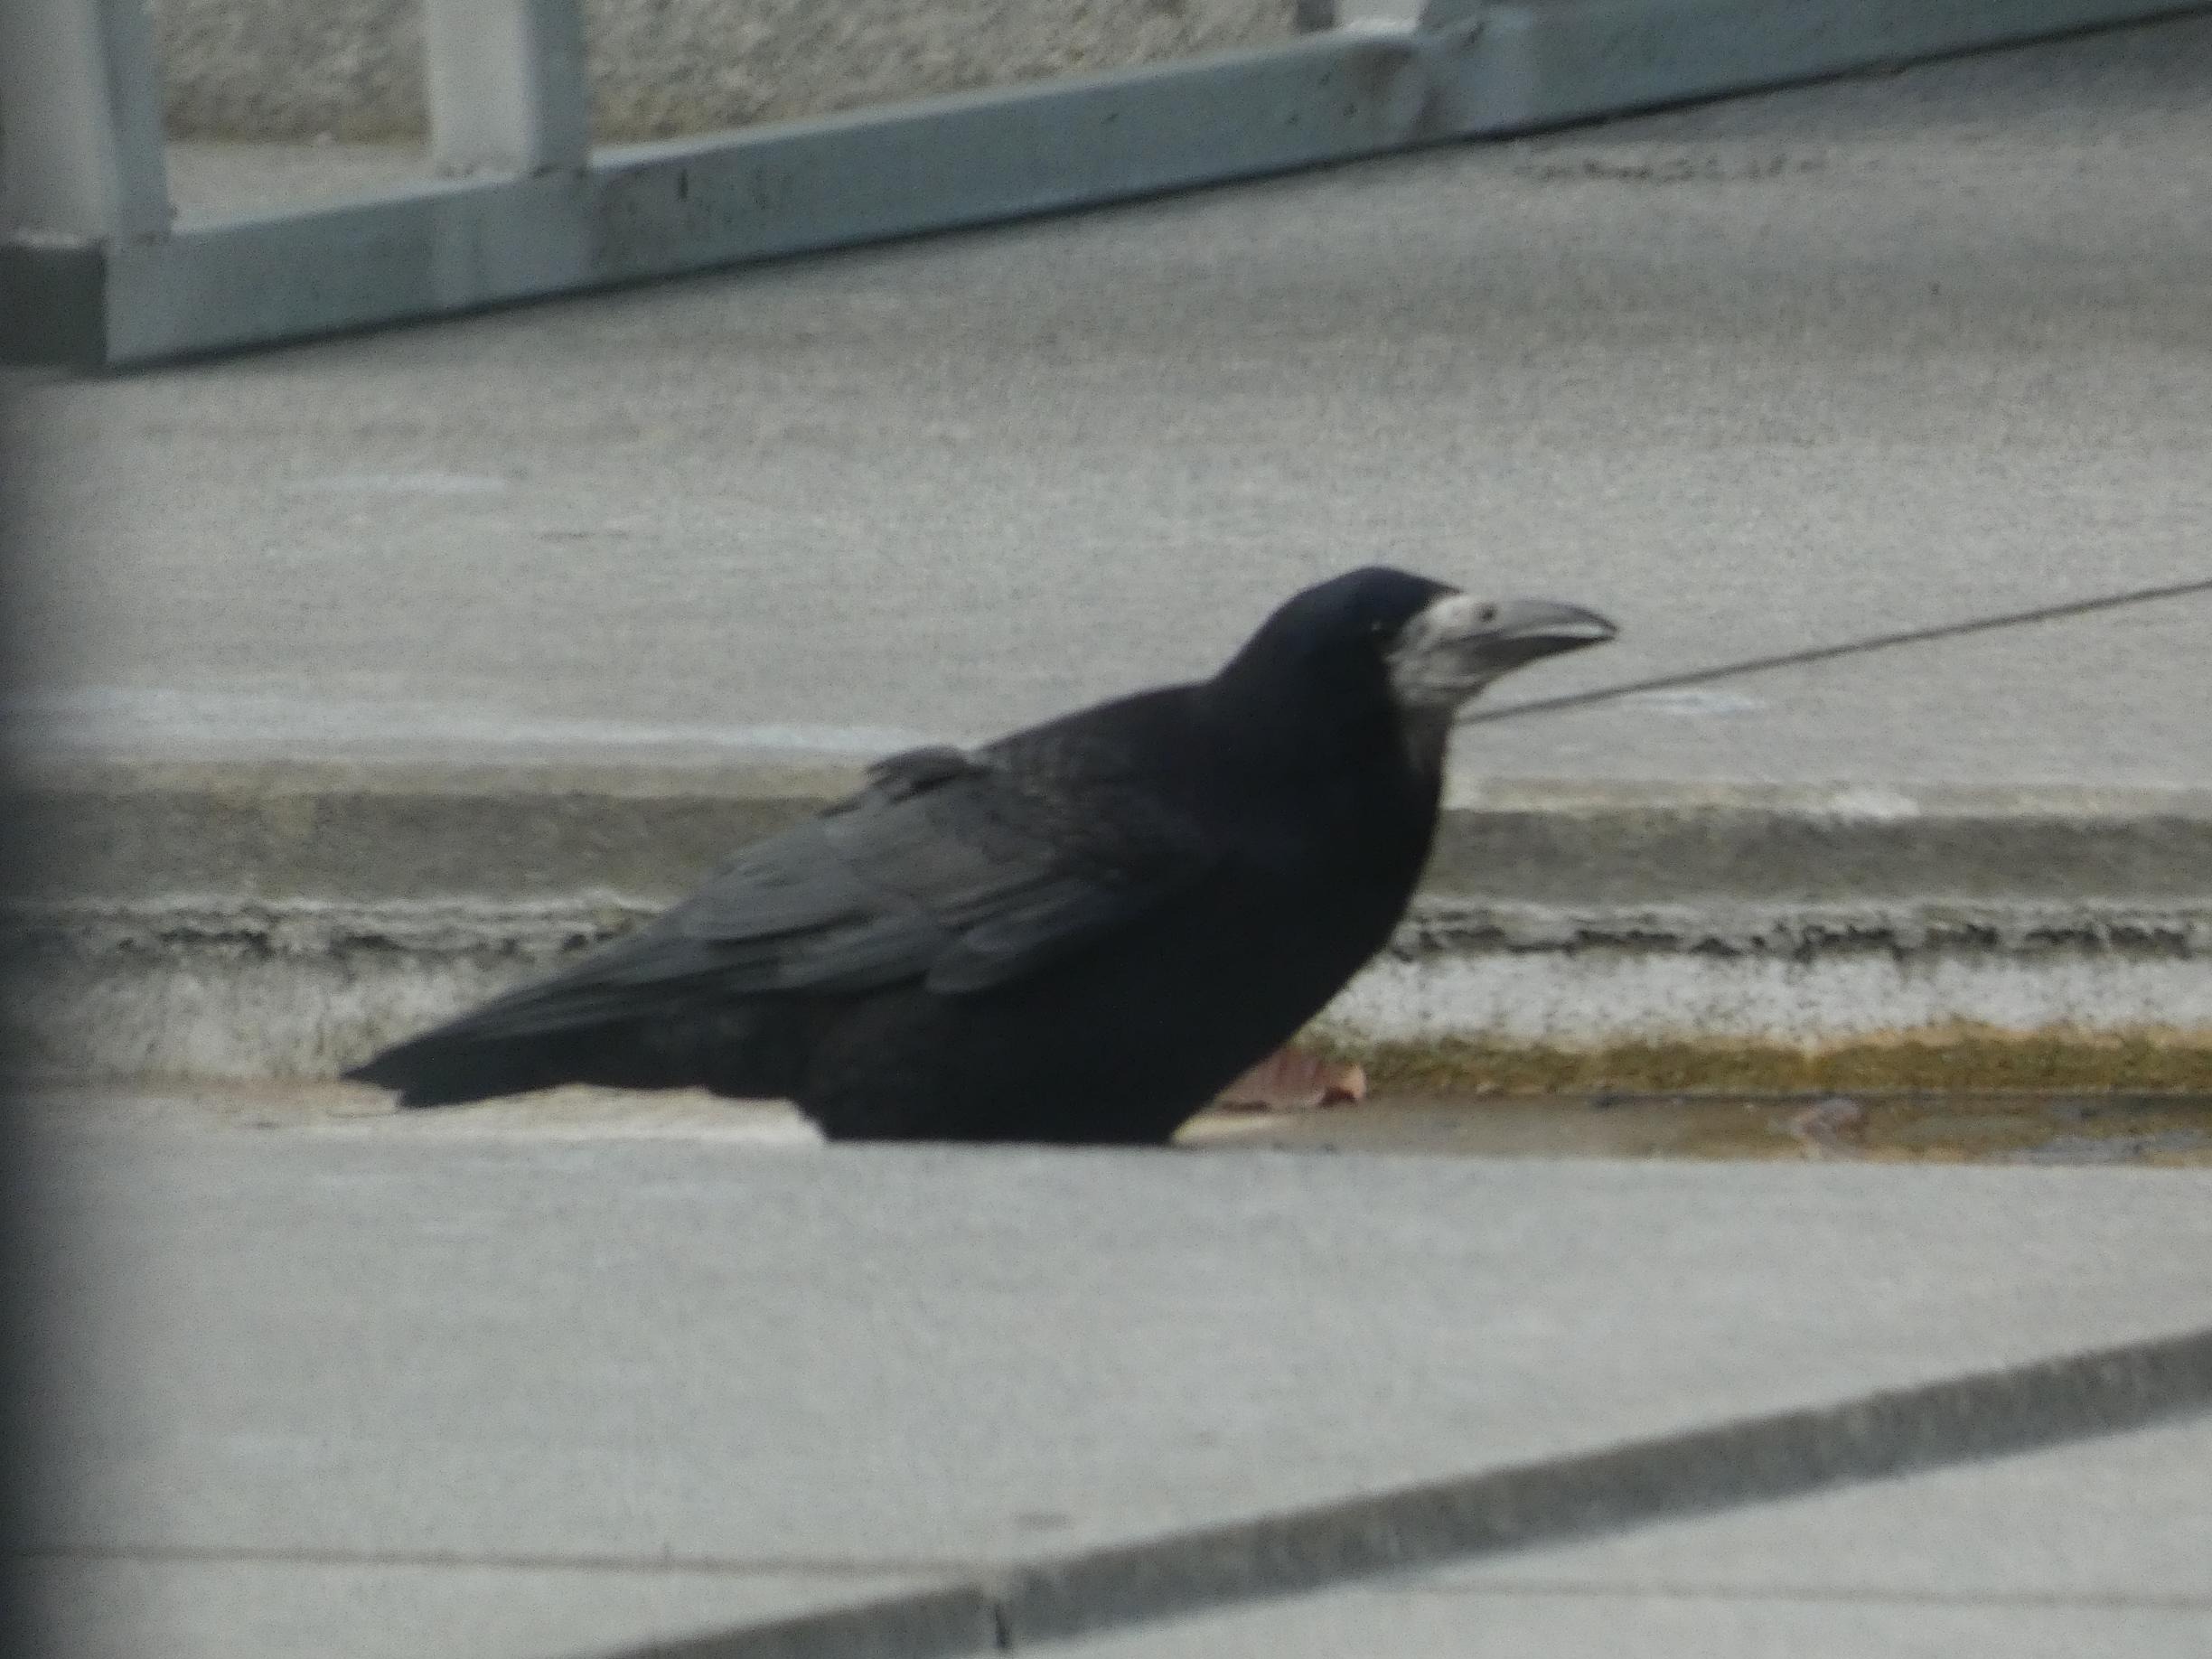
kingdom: Animalia
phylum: Chordata
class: Aves
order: Passeriformes
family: Corvidae
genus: Corvus
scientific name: Corvus frugilegus
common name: Råge
